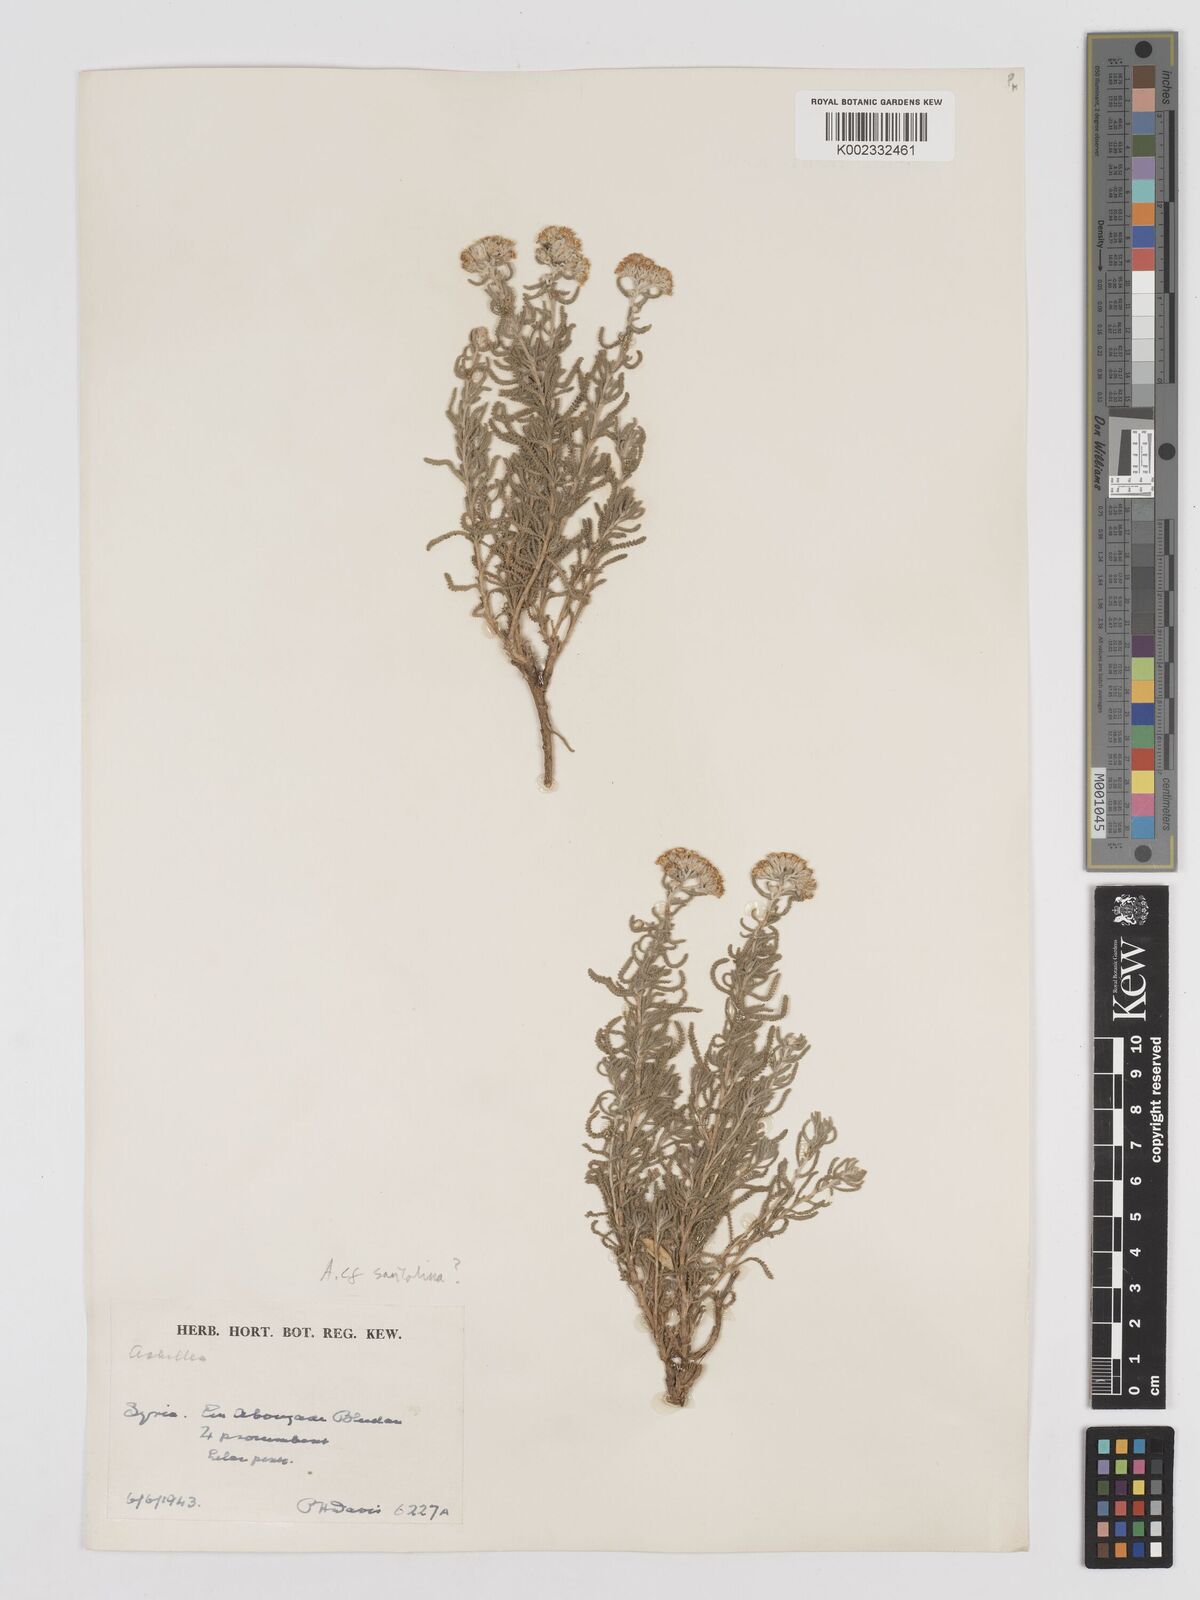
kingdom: Plantae
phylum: Tracheophyta
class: Magnoliopsida
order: Asterales
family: Asteraceae
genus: Achillea
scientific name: Achillea tenuifolia
